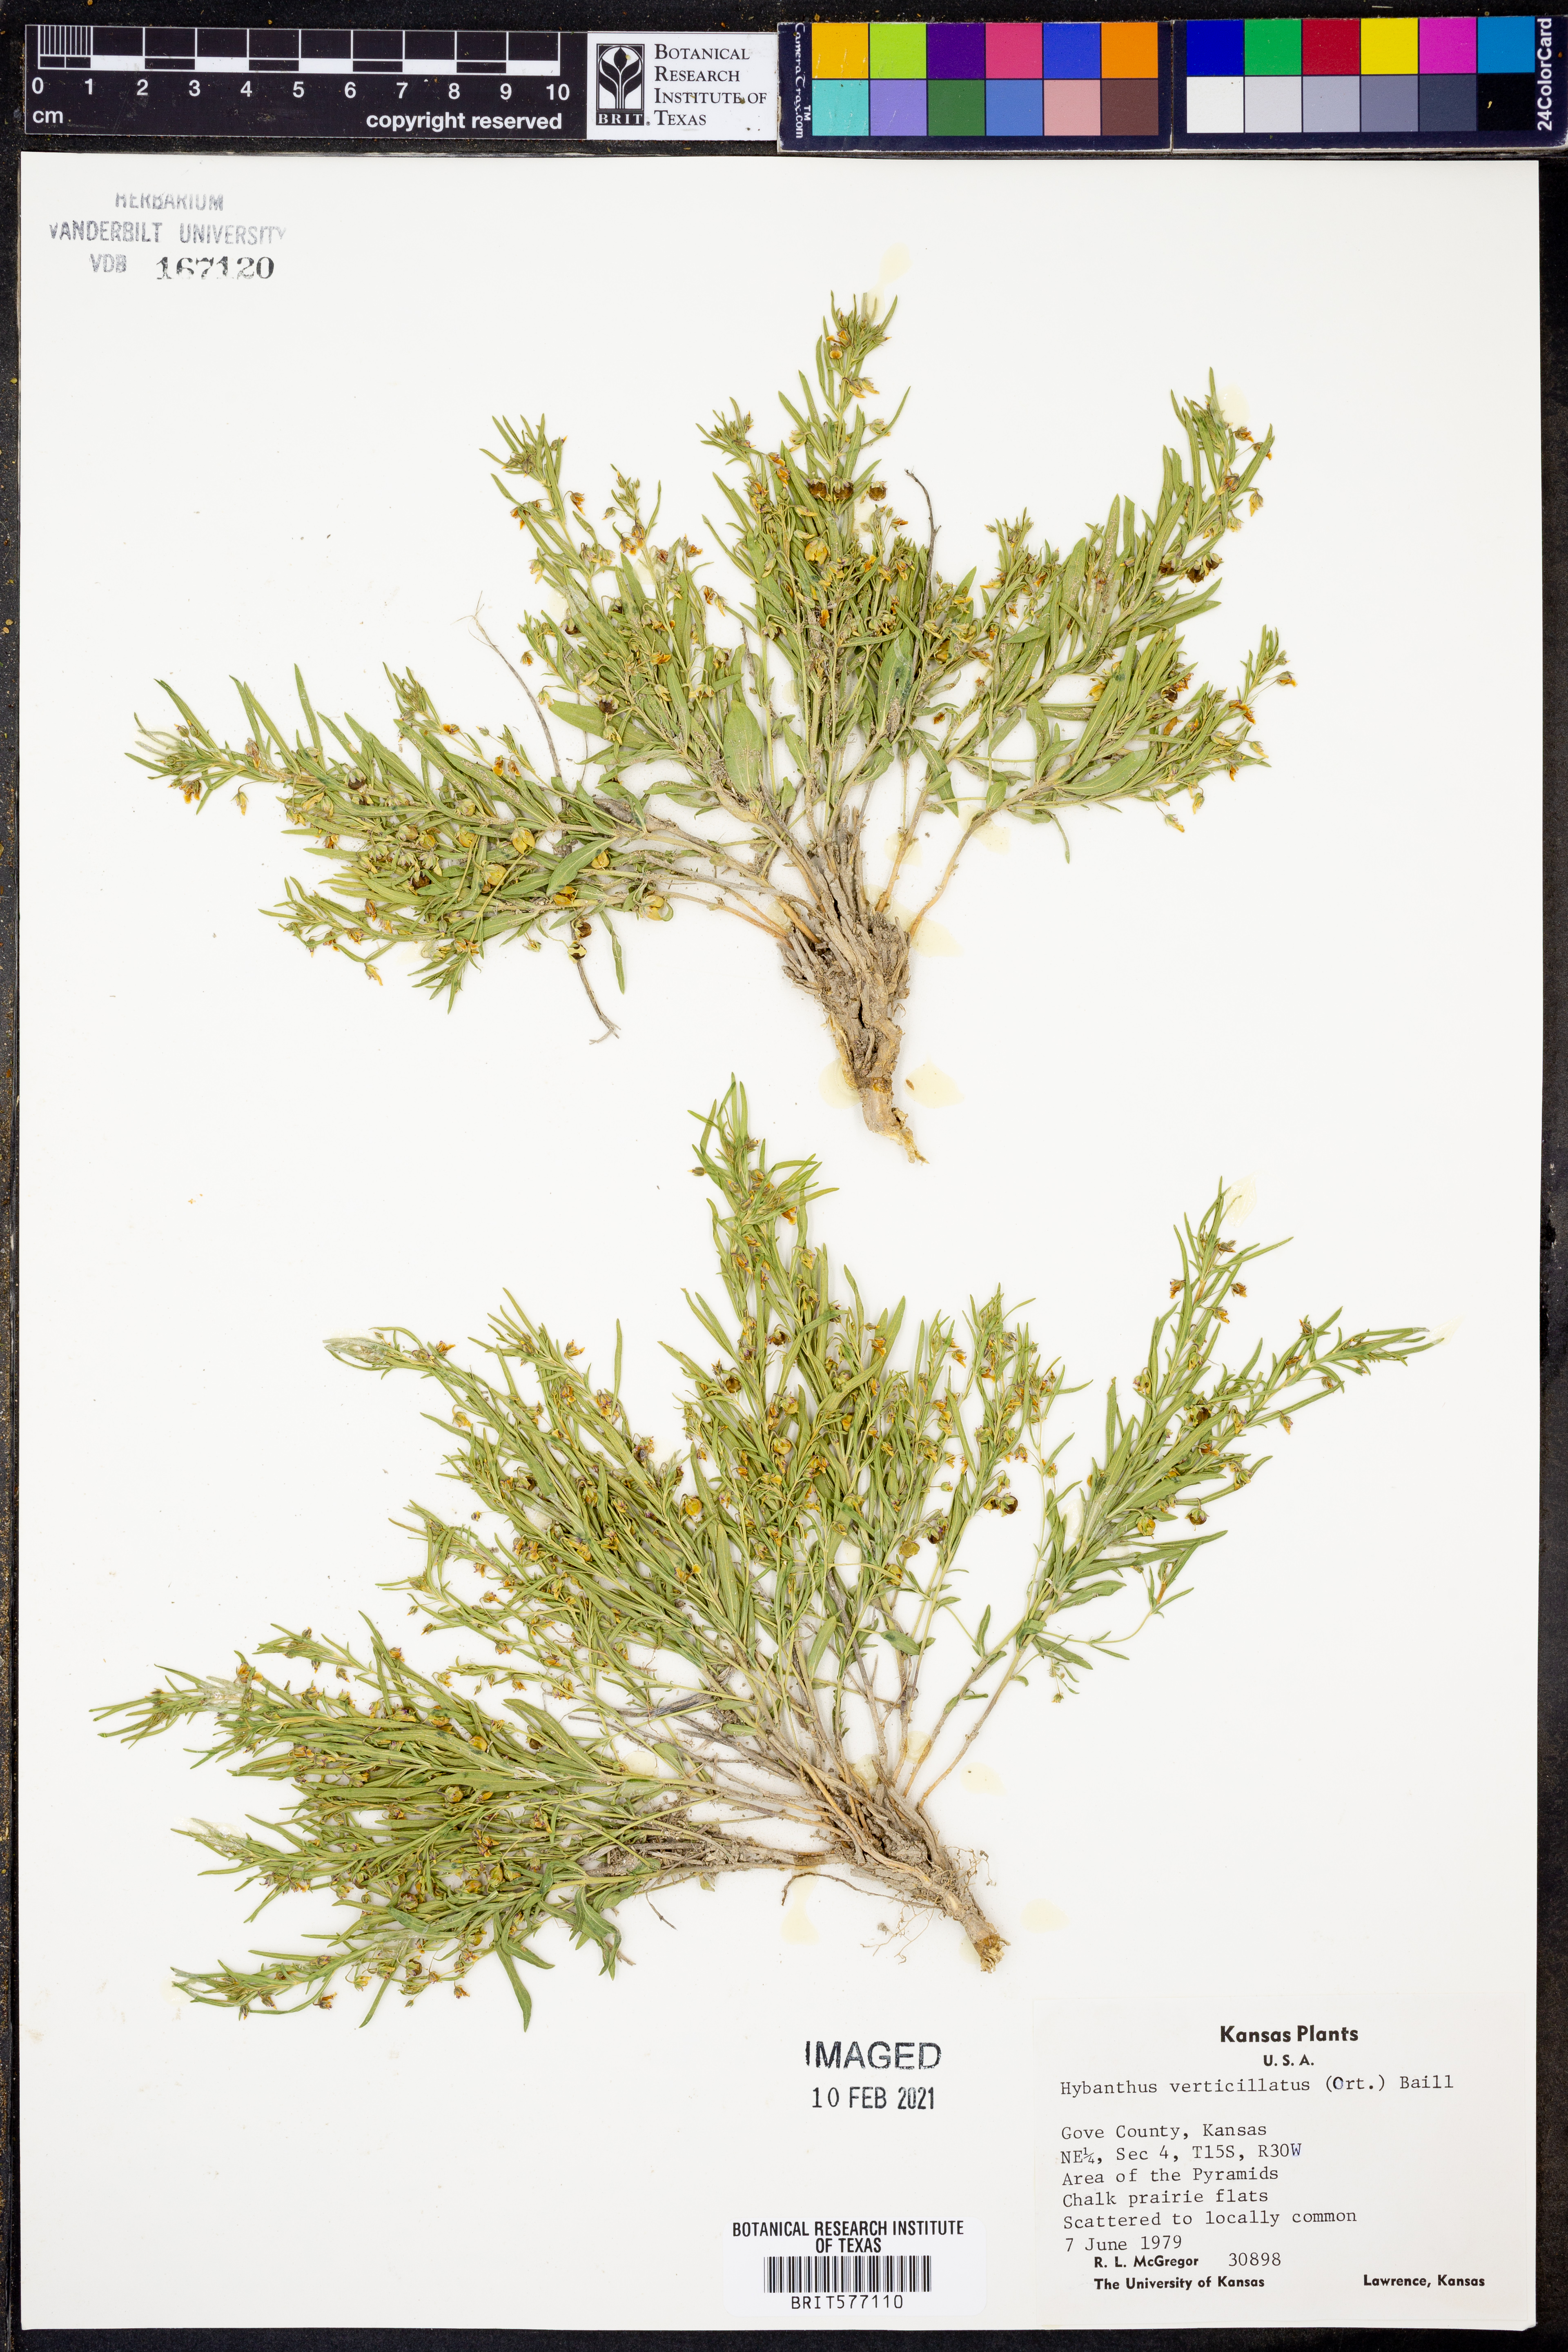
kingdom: Plantae
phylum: Tracheophyta
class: Magnoliopsida
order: Malpighiales
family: Violaceae
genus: Pombalia
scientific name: Pombalia verticillata
